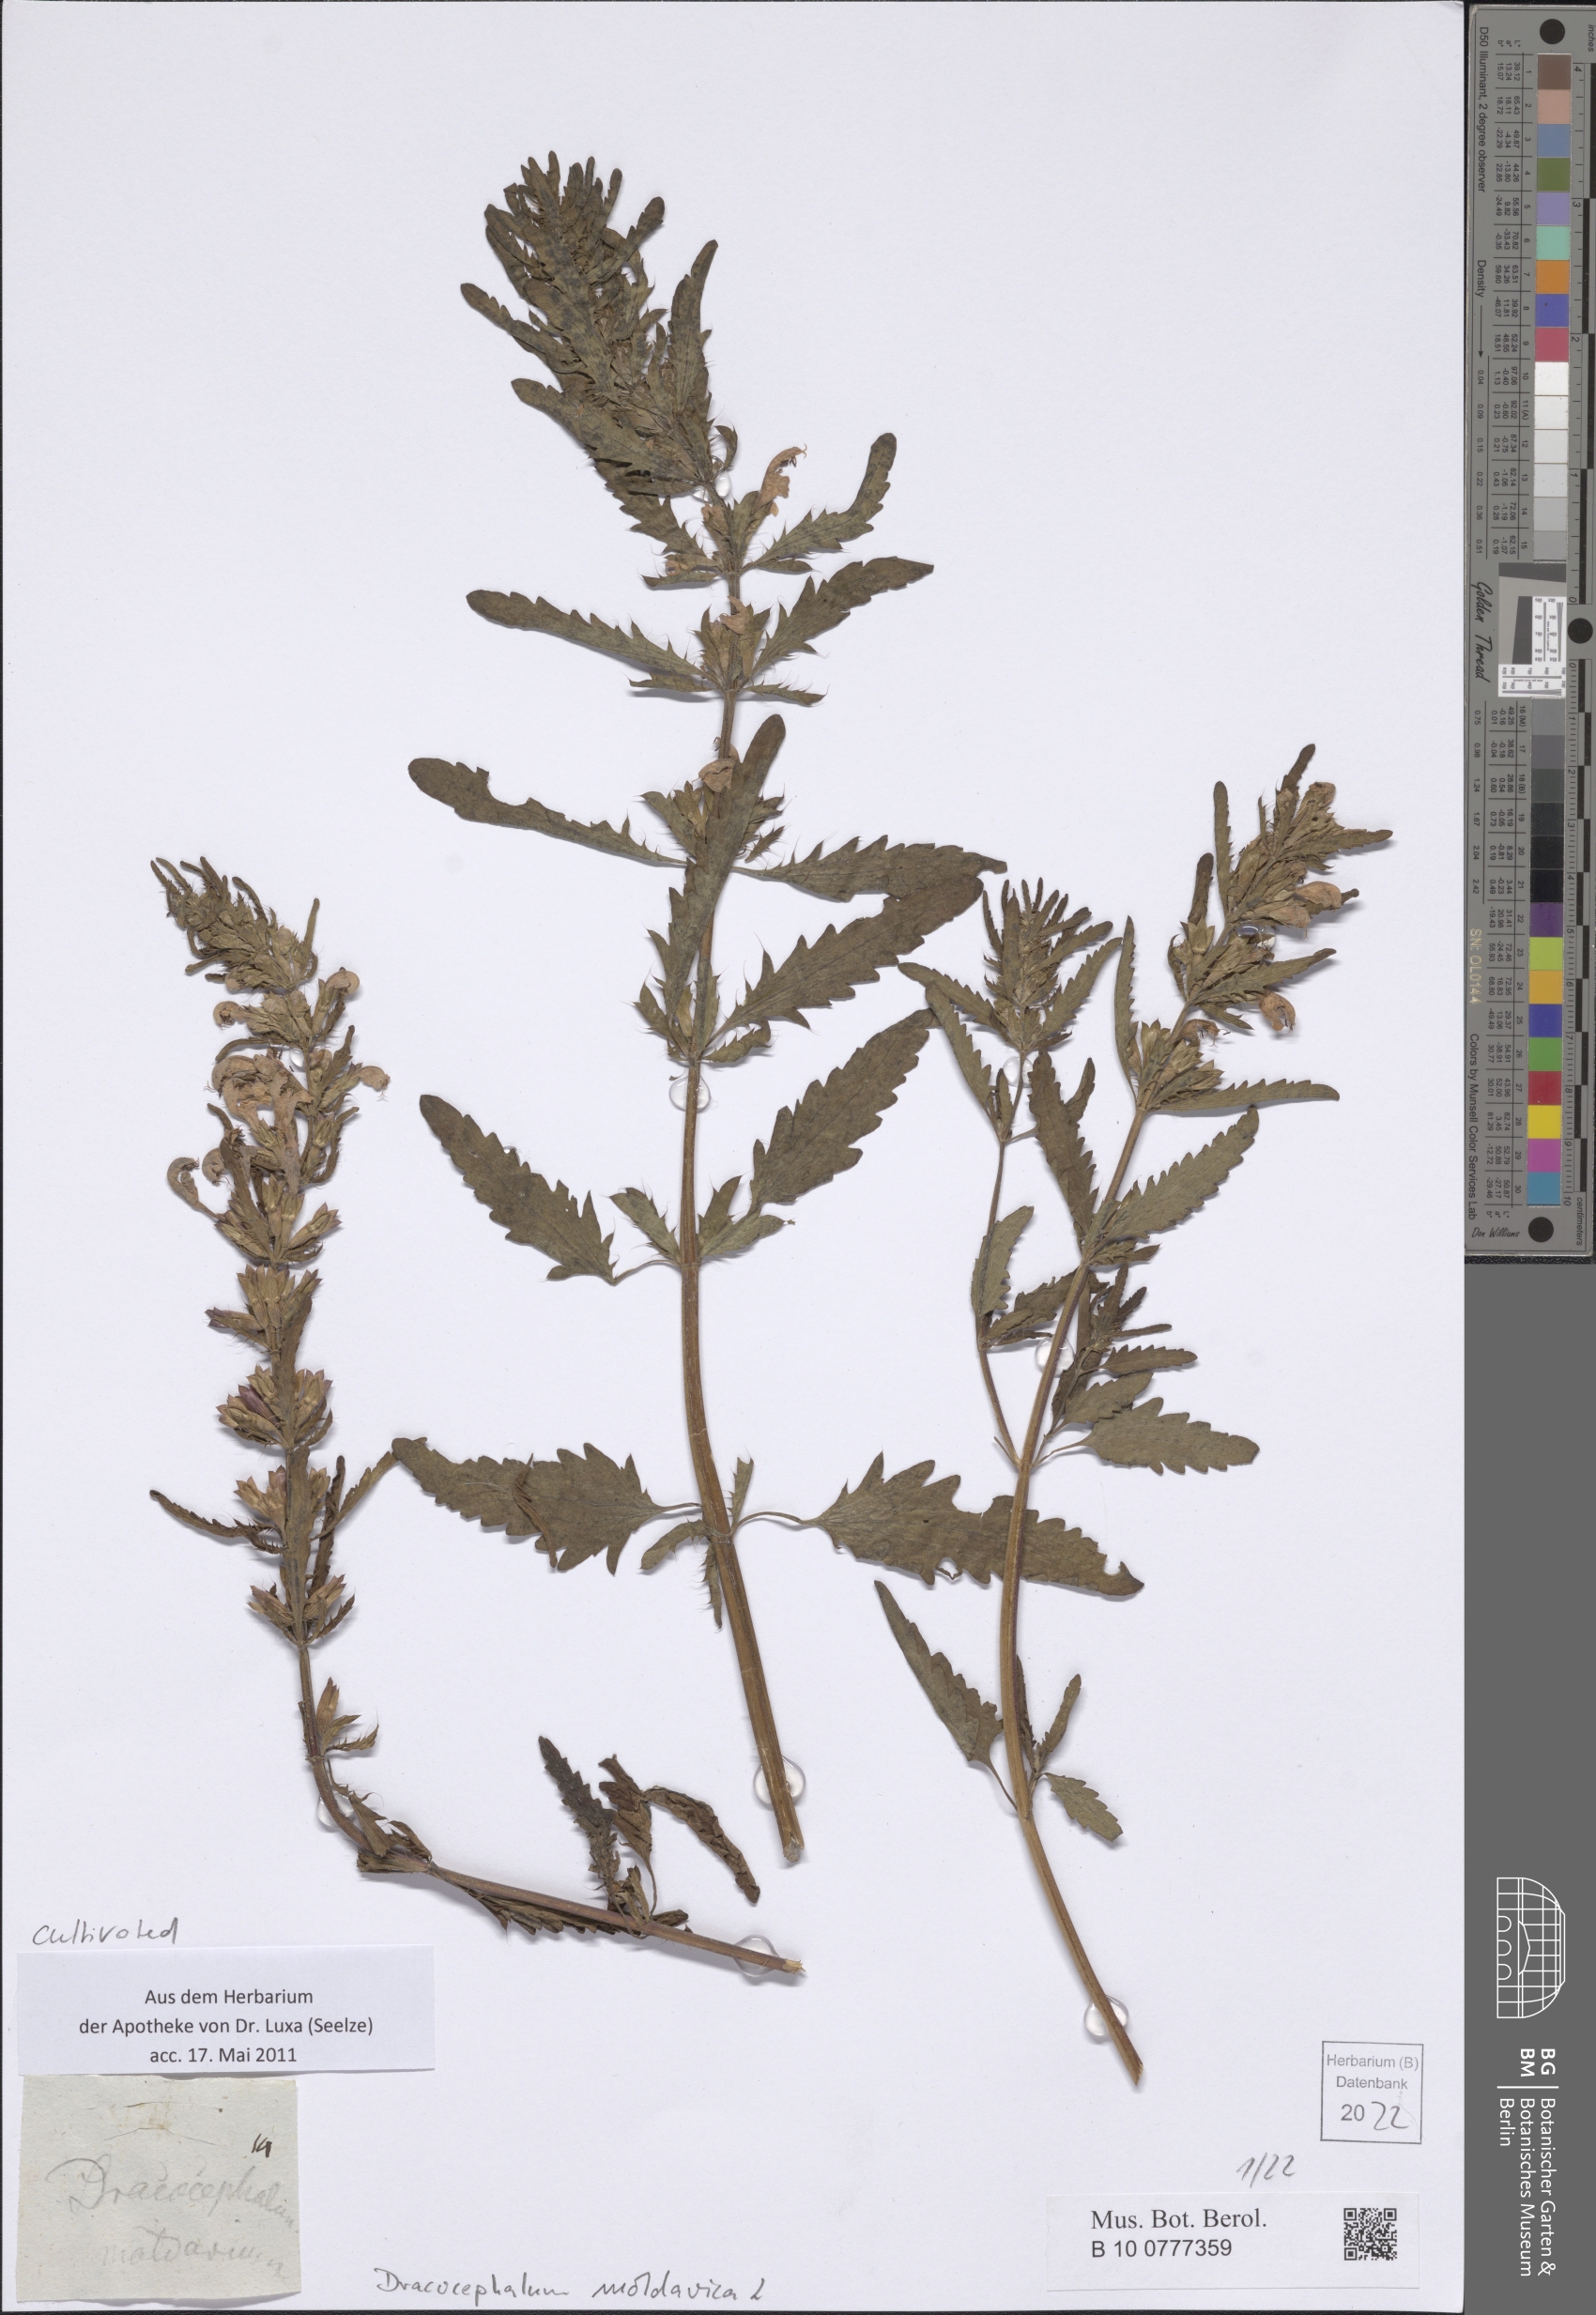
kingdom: Plantae
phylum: Tracheophyta
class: Magnoliopsida
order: Lamiales
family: Lamiaceae
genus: Dracocephalum
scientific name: Dracocephalum moldavica
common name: Moldavian dragonhead
